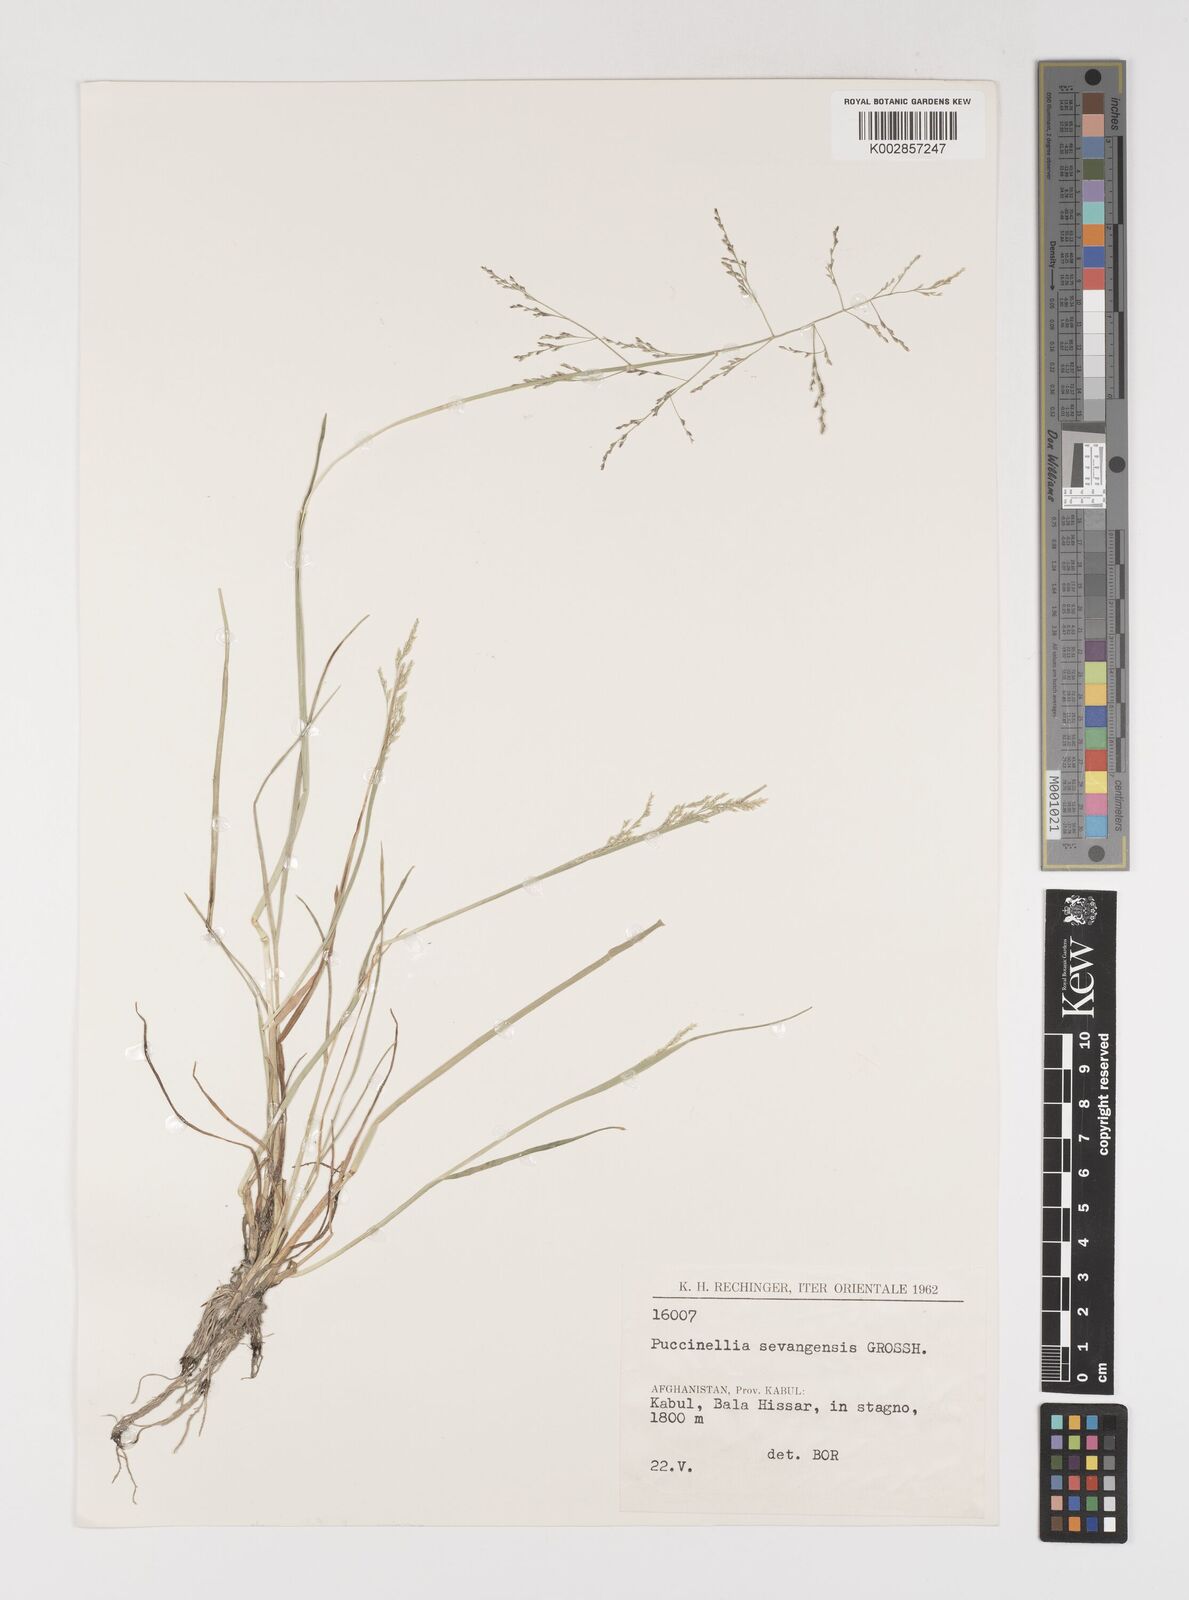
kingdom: Plantae
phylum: Tracheophyta
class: Liliopsida
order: Poales
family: Poaceae
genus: Puccinellia
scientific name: Puccinellia distans
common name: Weeping alkaligrass
